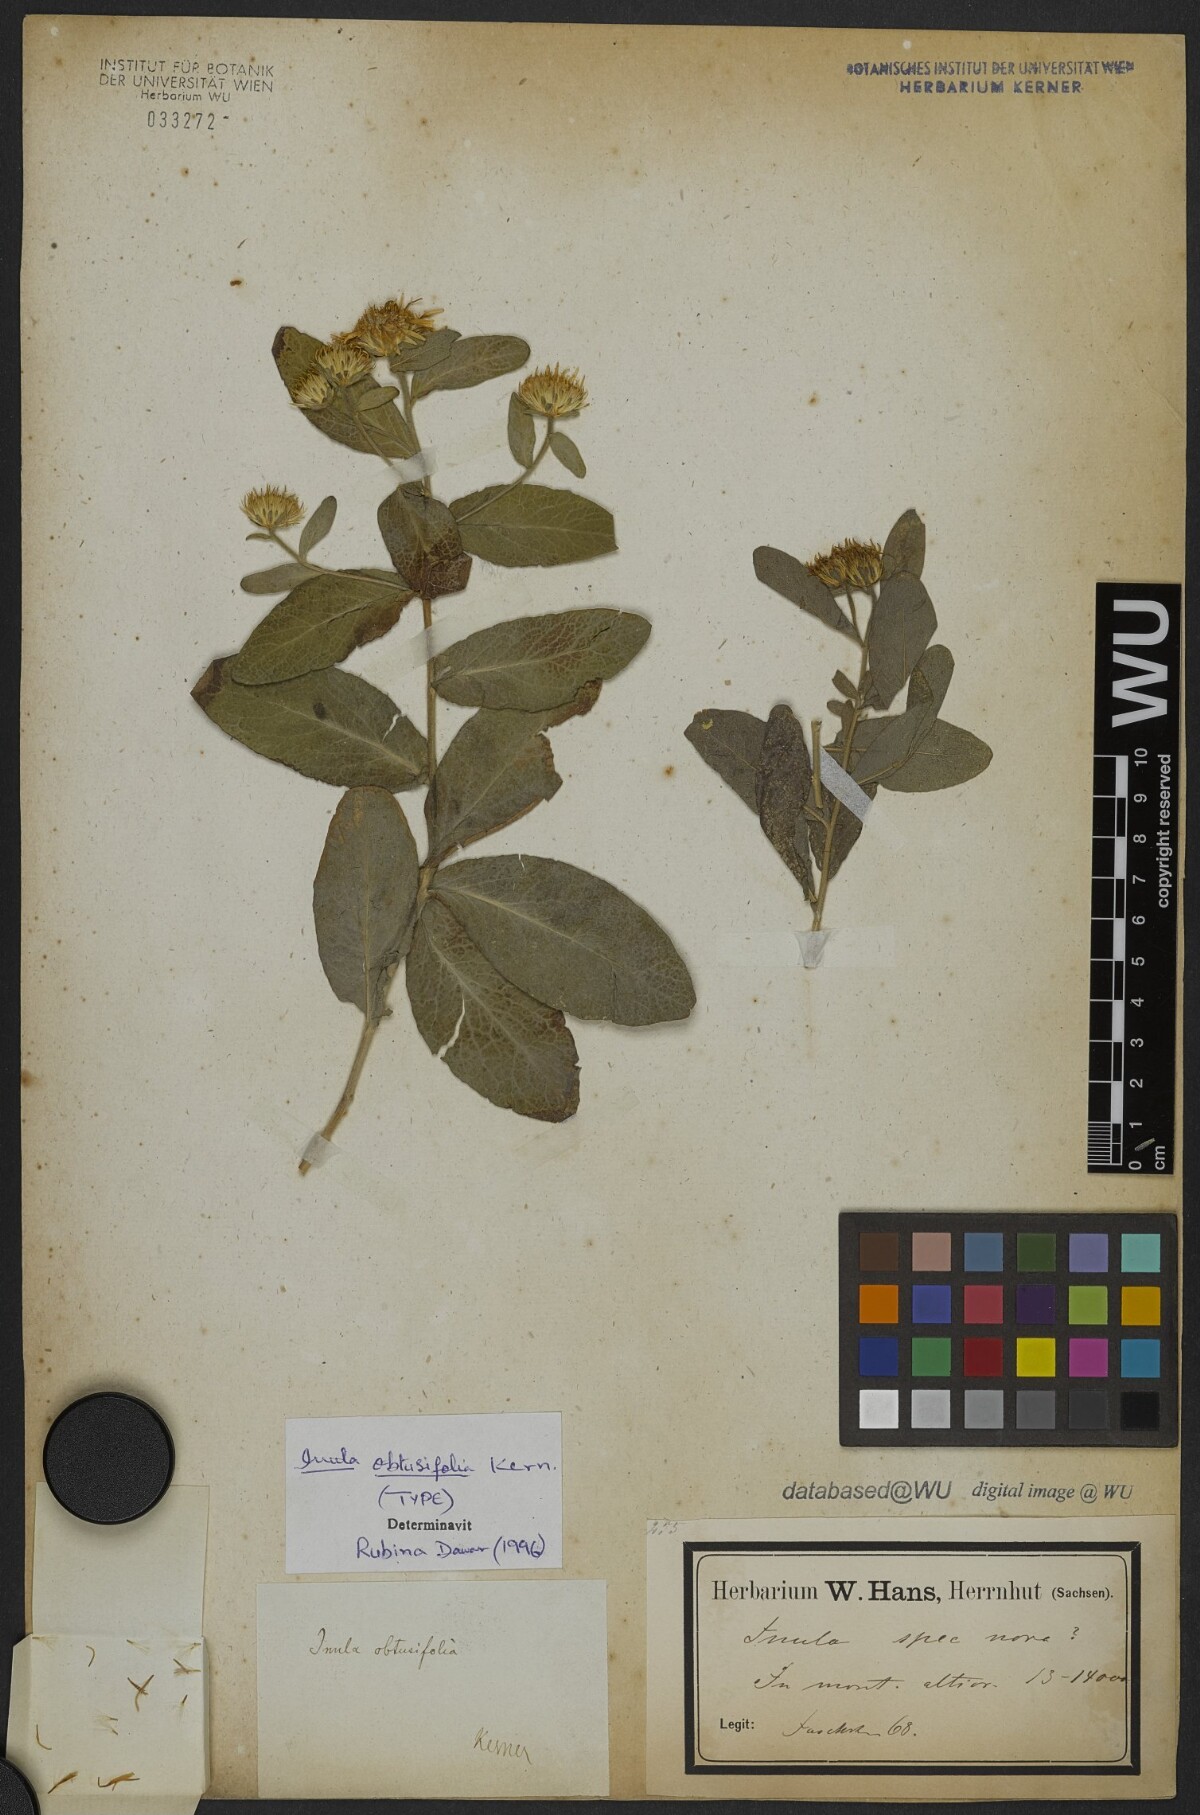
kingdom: Plantae
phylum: Tracheophyta
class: Magnoliopsida
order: Asterales
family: Asteraceae
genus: Inula
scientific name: Inula obtusifolia
